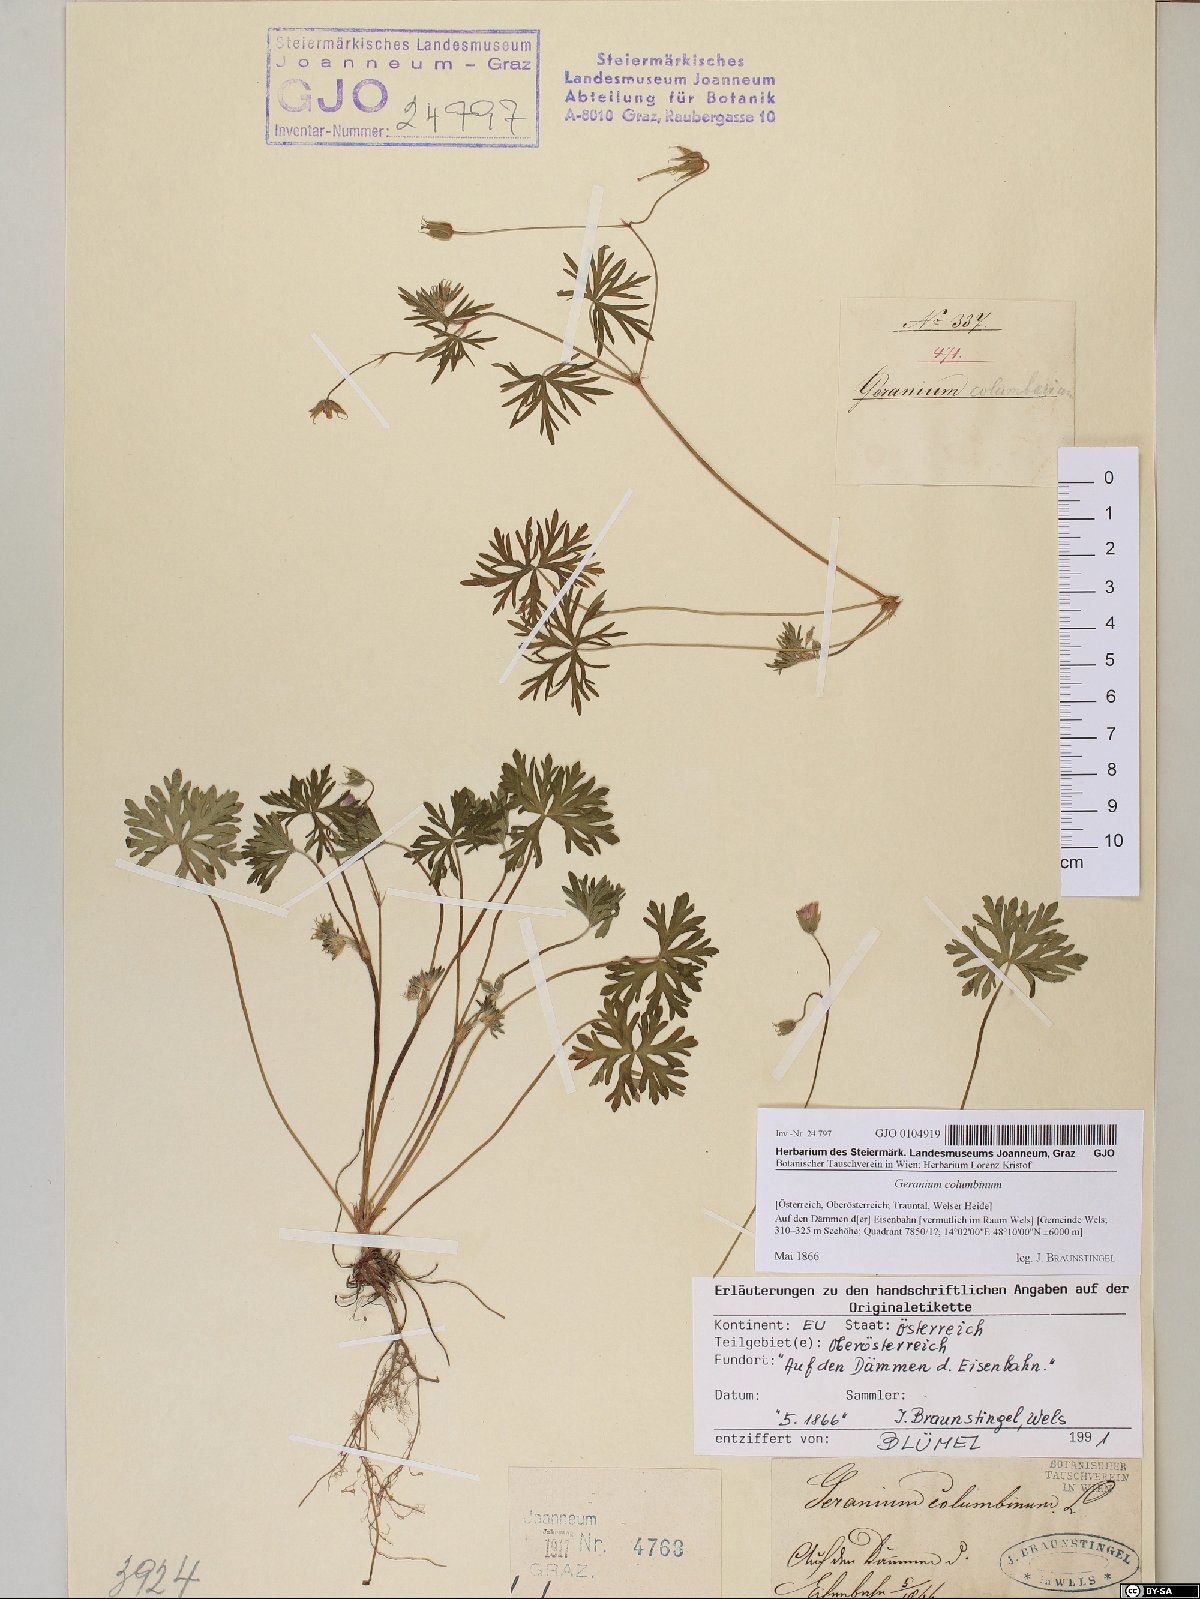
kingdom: Plantae
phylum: Tracheophyta
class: Magnoliopsida
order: Geraniales
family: Geraniaceae
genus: Geranium
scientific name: Geranium columbinum
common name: Long-stalked crane's-bill
